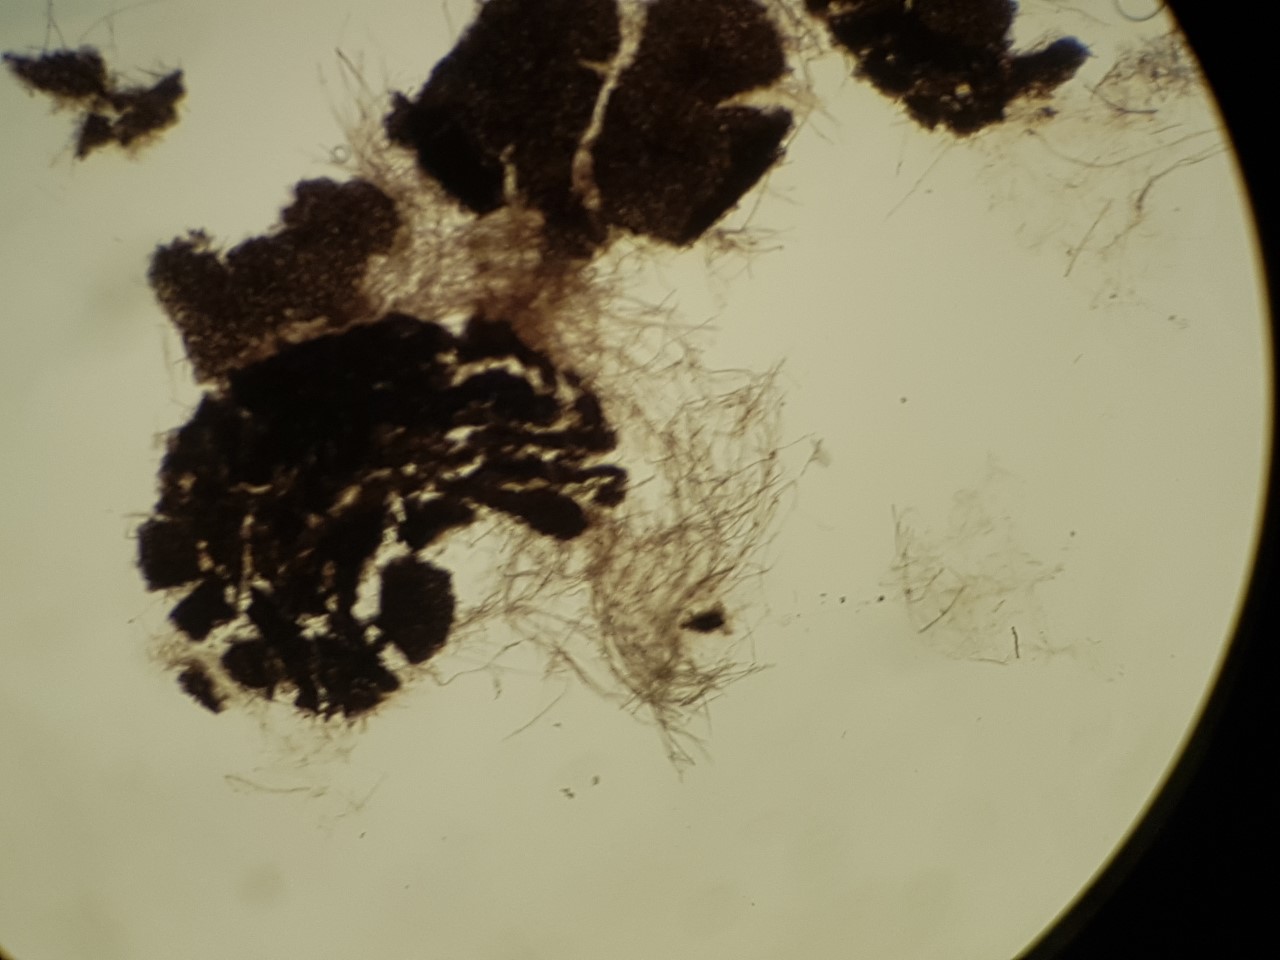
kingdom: Fungi
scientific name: Fungi
